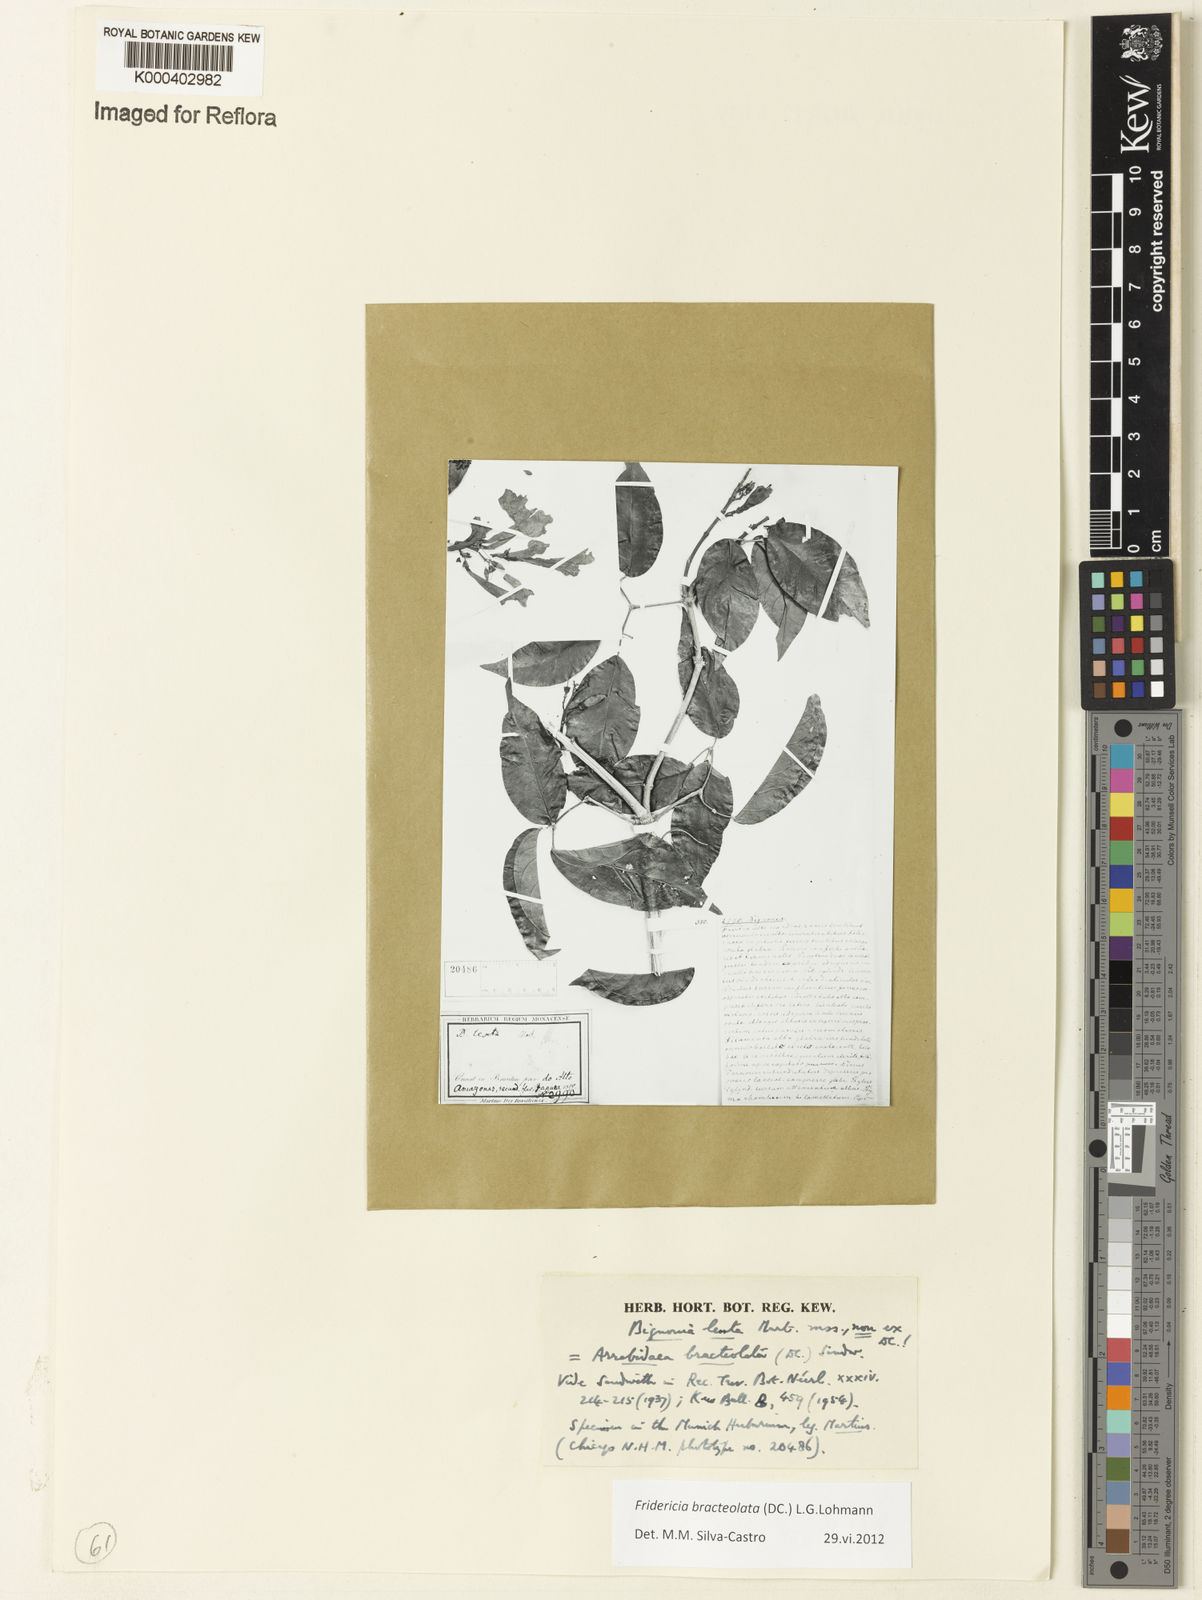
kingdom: Plantae
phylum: Tracheophyta
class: Magnoliopsida
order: Lamiales
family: Bignoniaceae
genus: Cuspidaria
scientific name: Cuspidaria bracteolata
